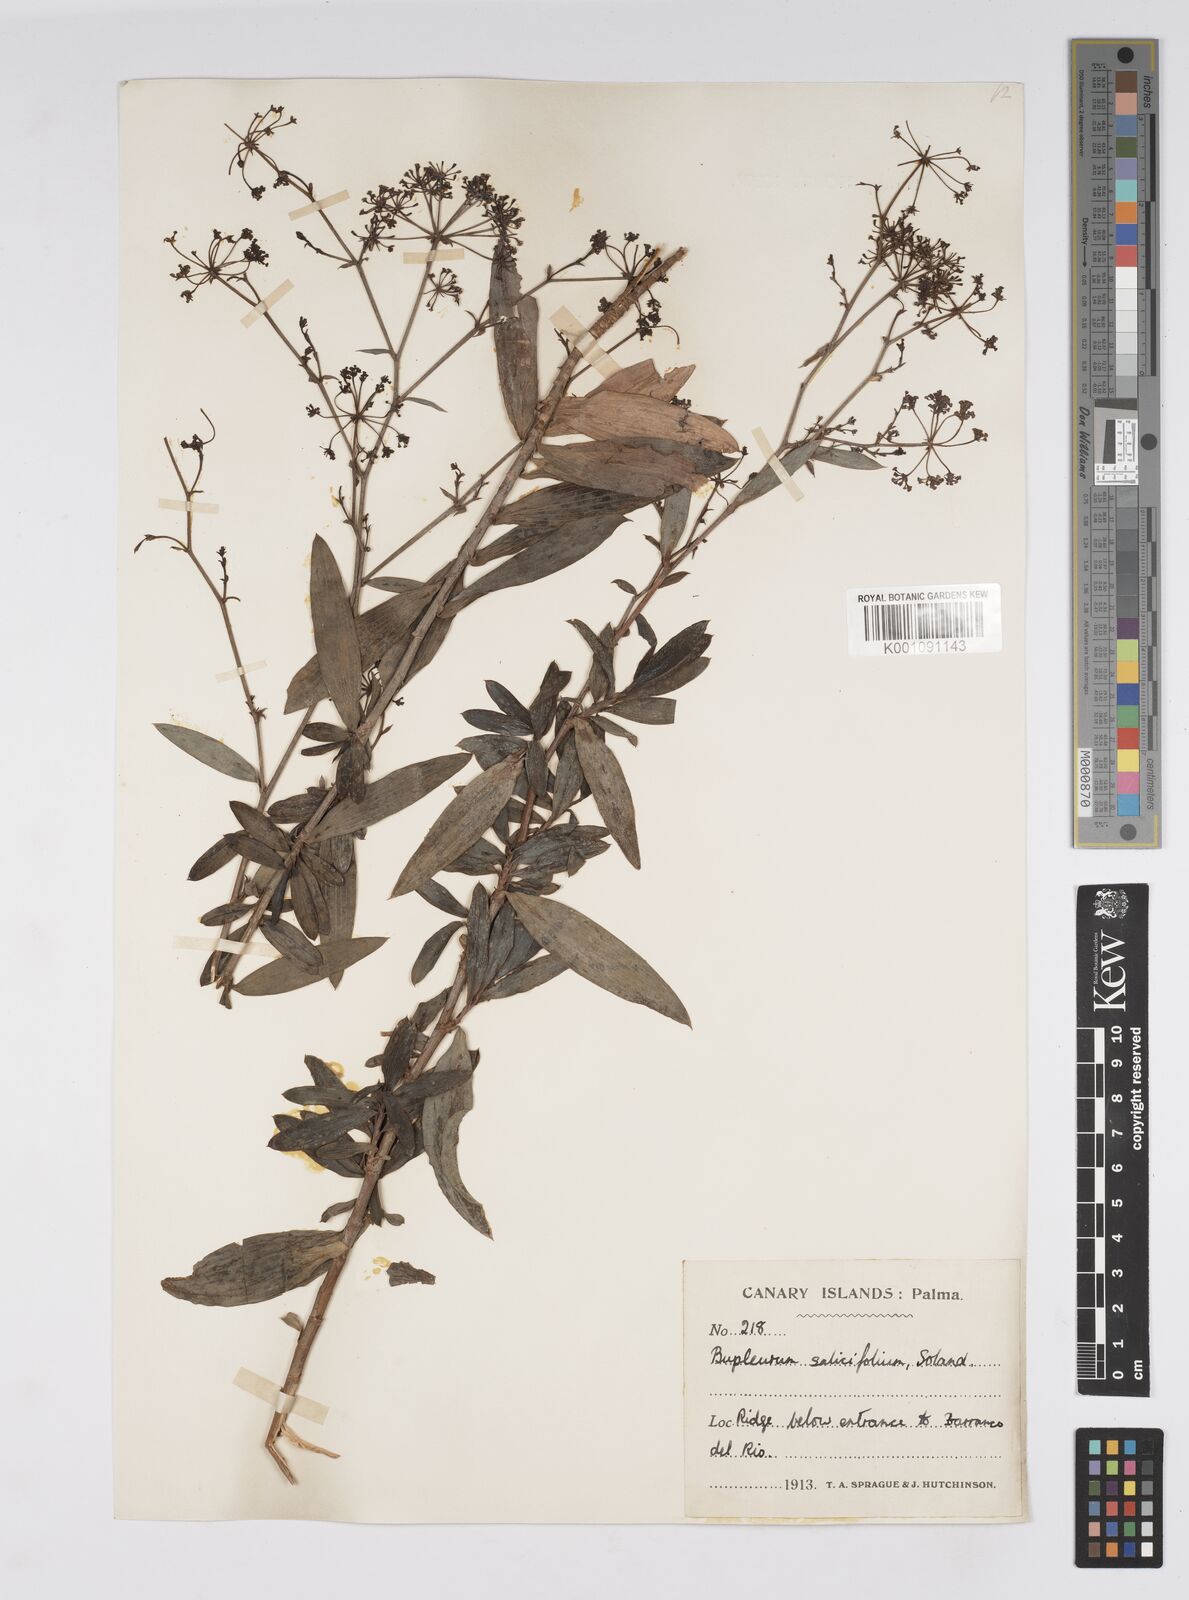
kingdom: Plantae
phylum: Tracheophyta
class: Magnoliopsida
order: Apiales
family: Apiaceae
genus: Bupleurum
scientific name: Bupleurum salicifolium
